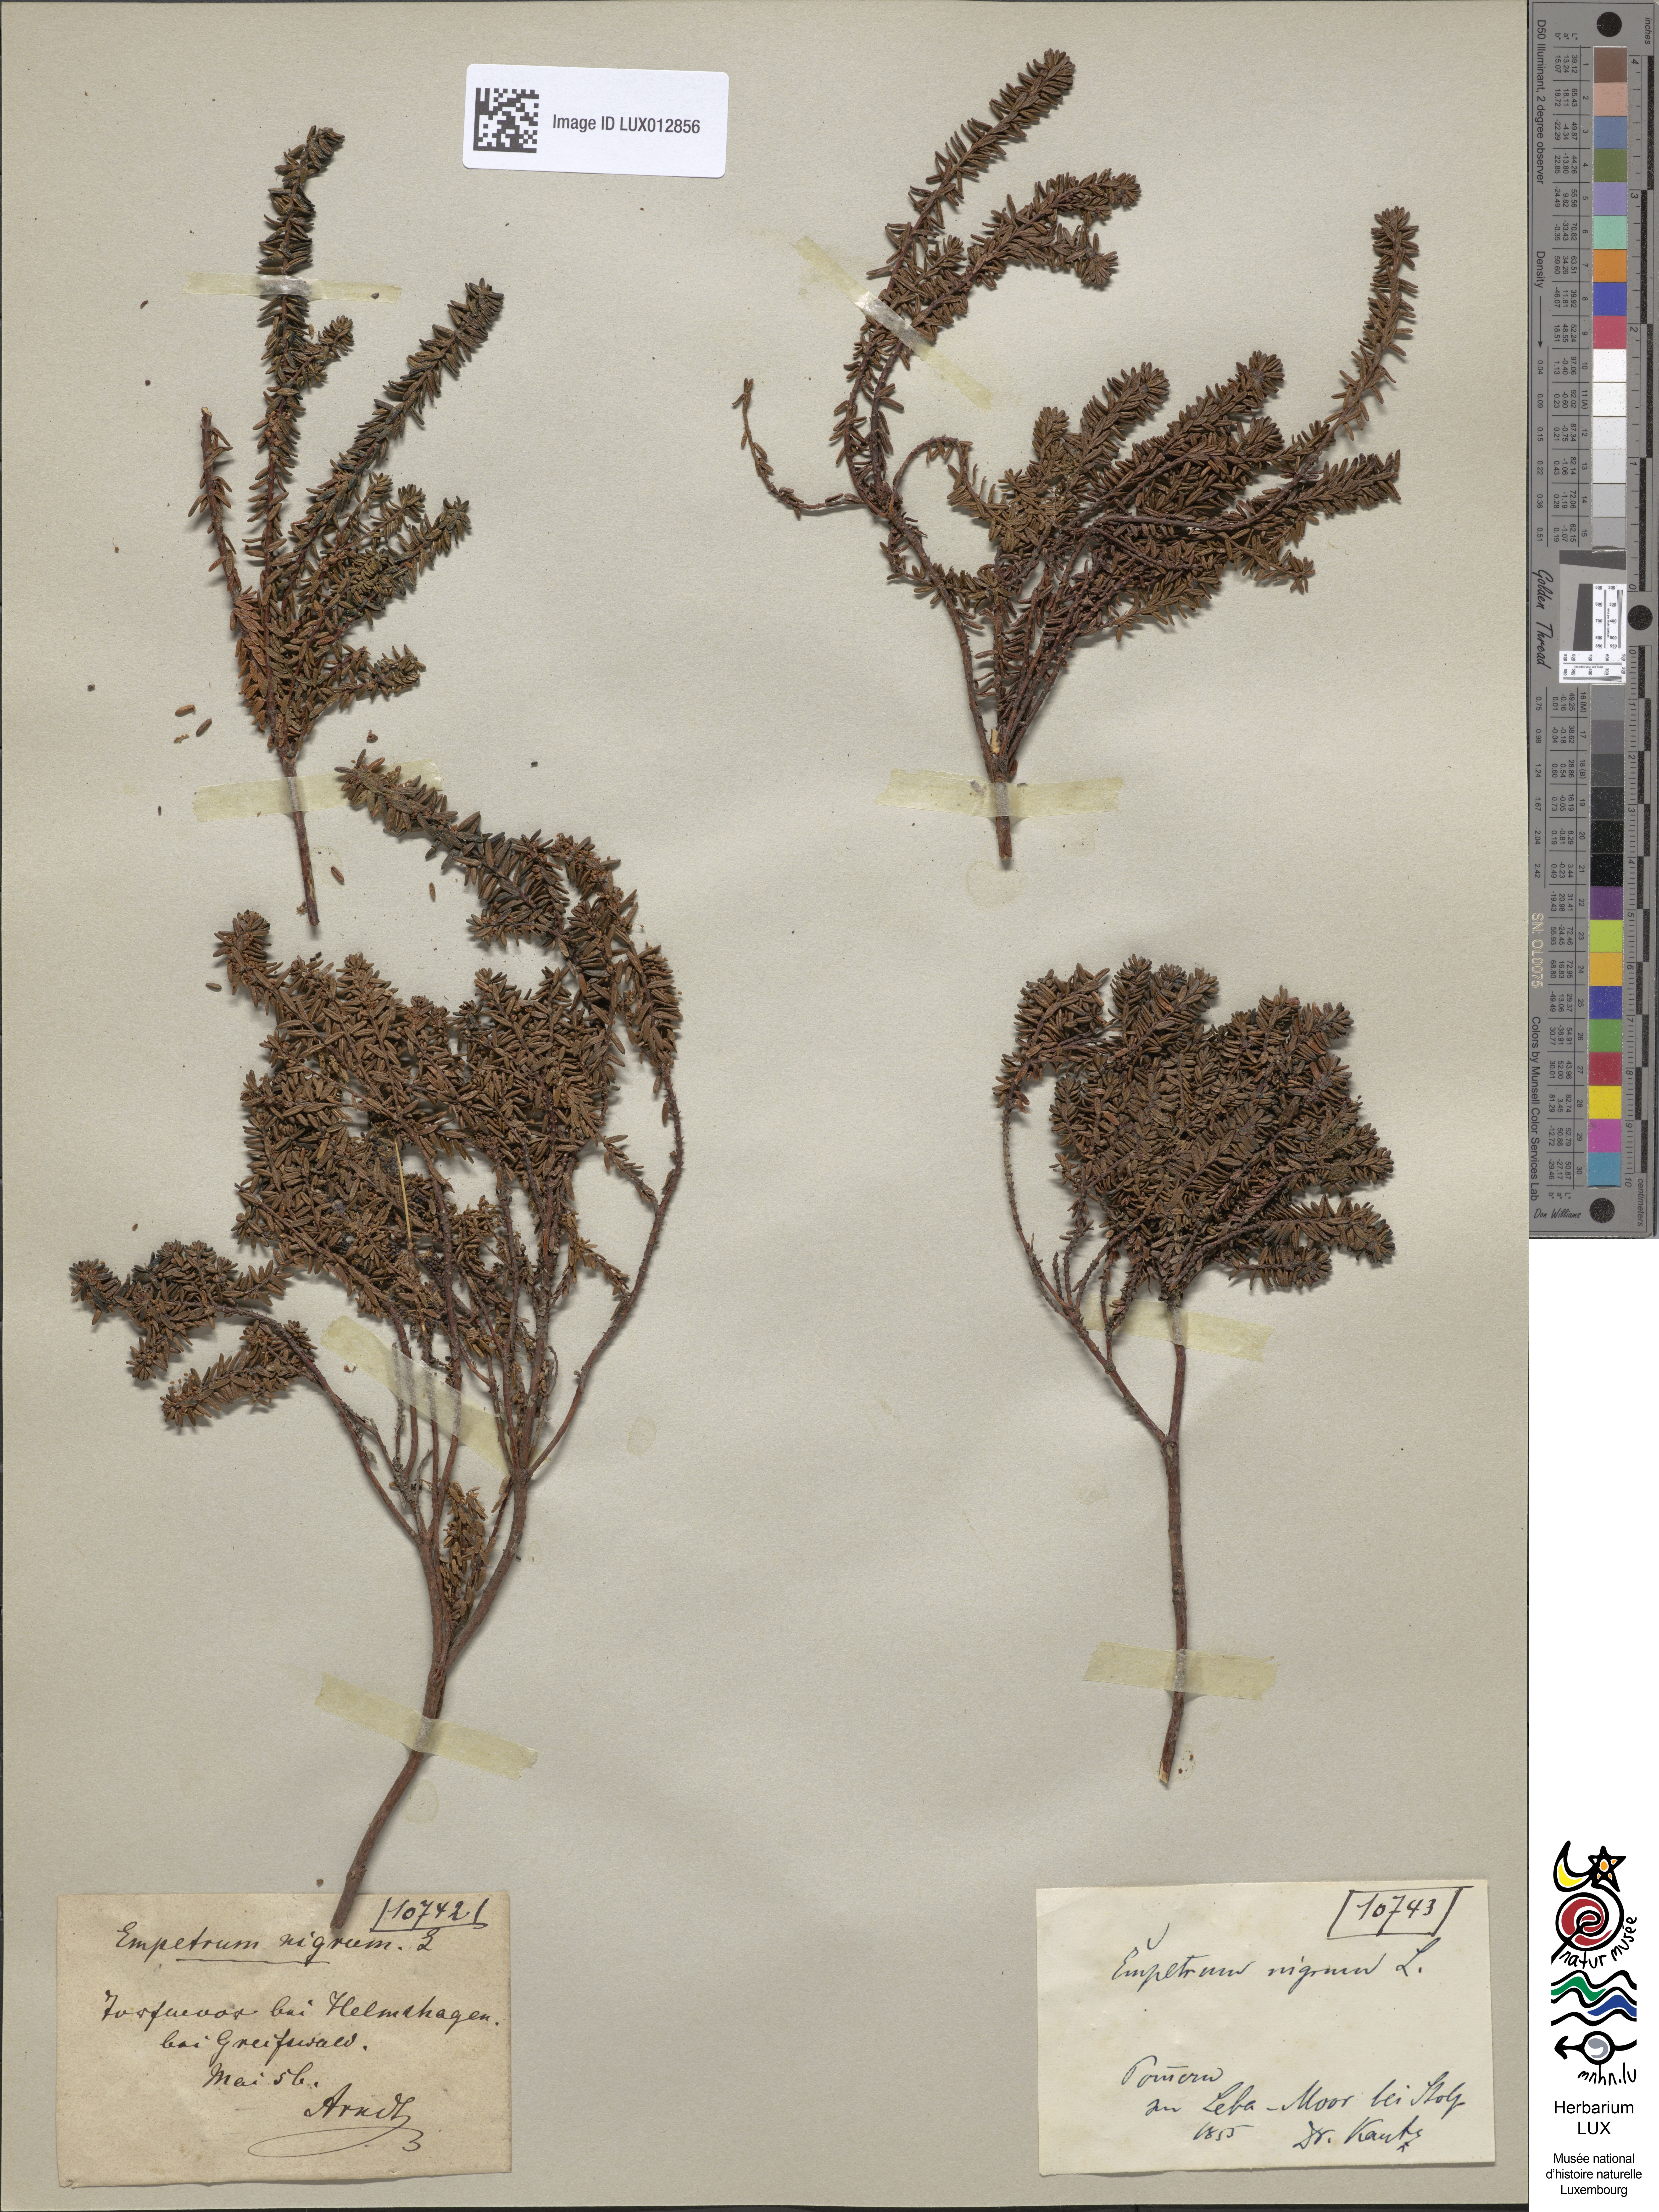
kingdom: Plantae
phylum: Tracheophyta
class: Magnoliopsida
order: Ericales
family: Ericaceae
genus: Empetrum
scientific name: Empetrum nigrum
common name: Black crowberry
